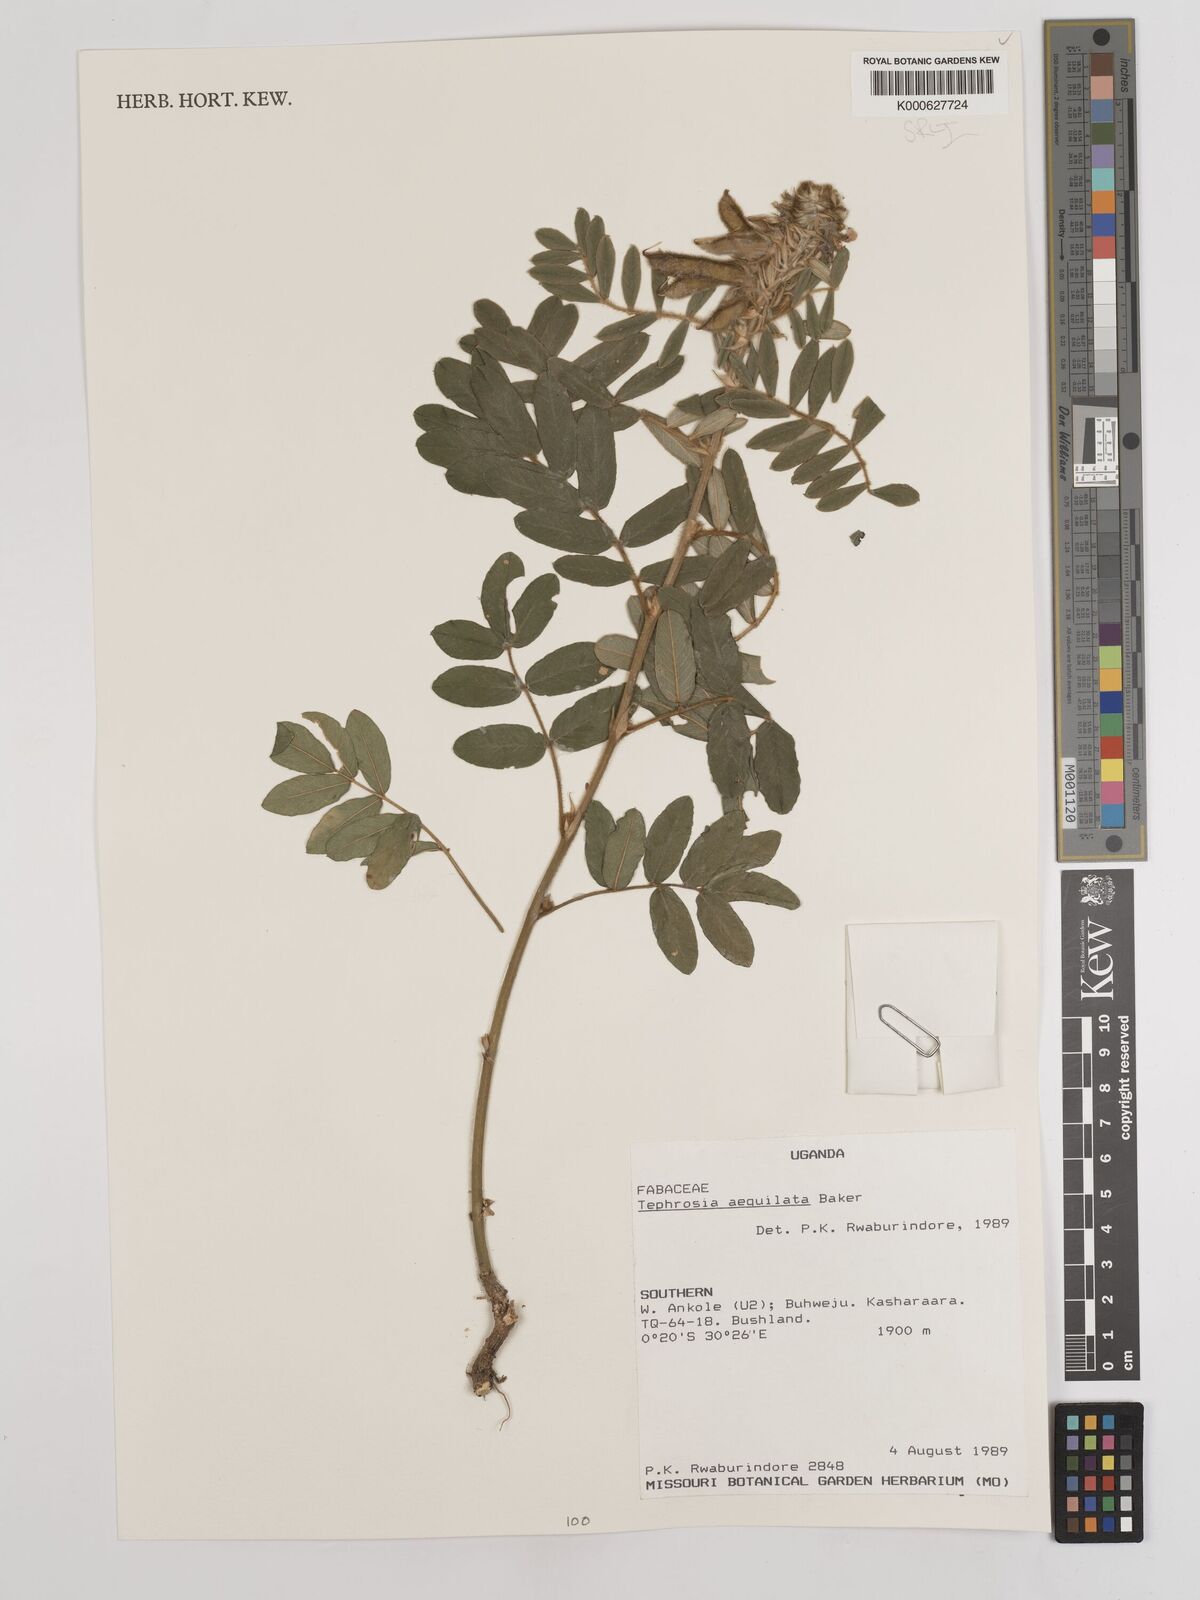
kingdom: Plantae
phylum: Tracheophyta
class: Magnoliopsida
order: Fabales
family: Fabaceae
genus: Tephrosia
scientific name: Tephrosia aequilata
